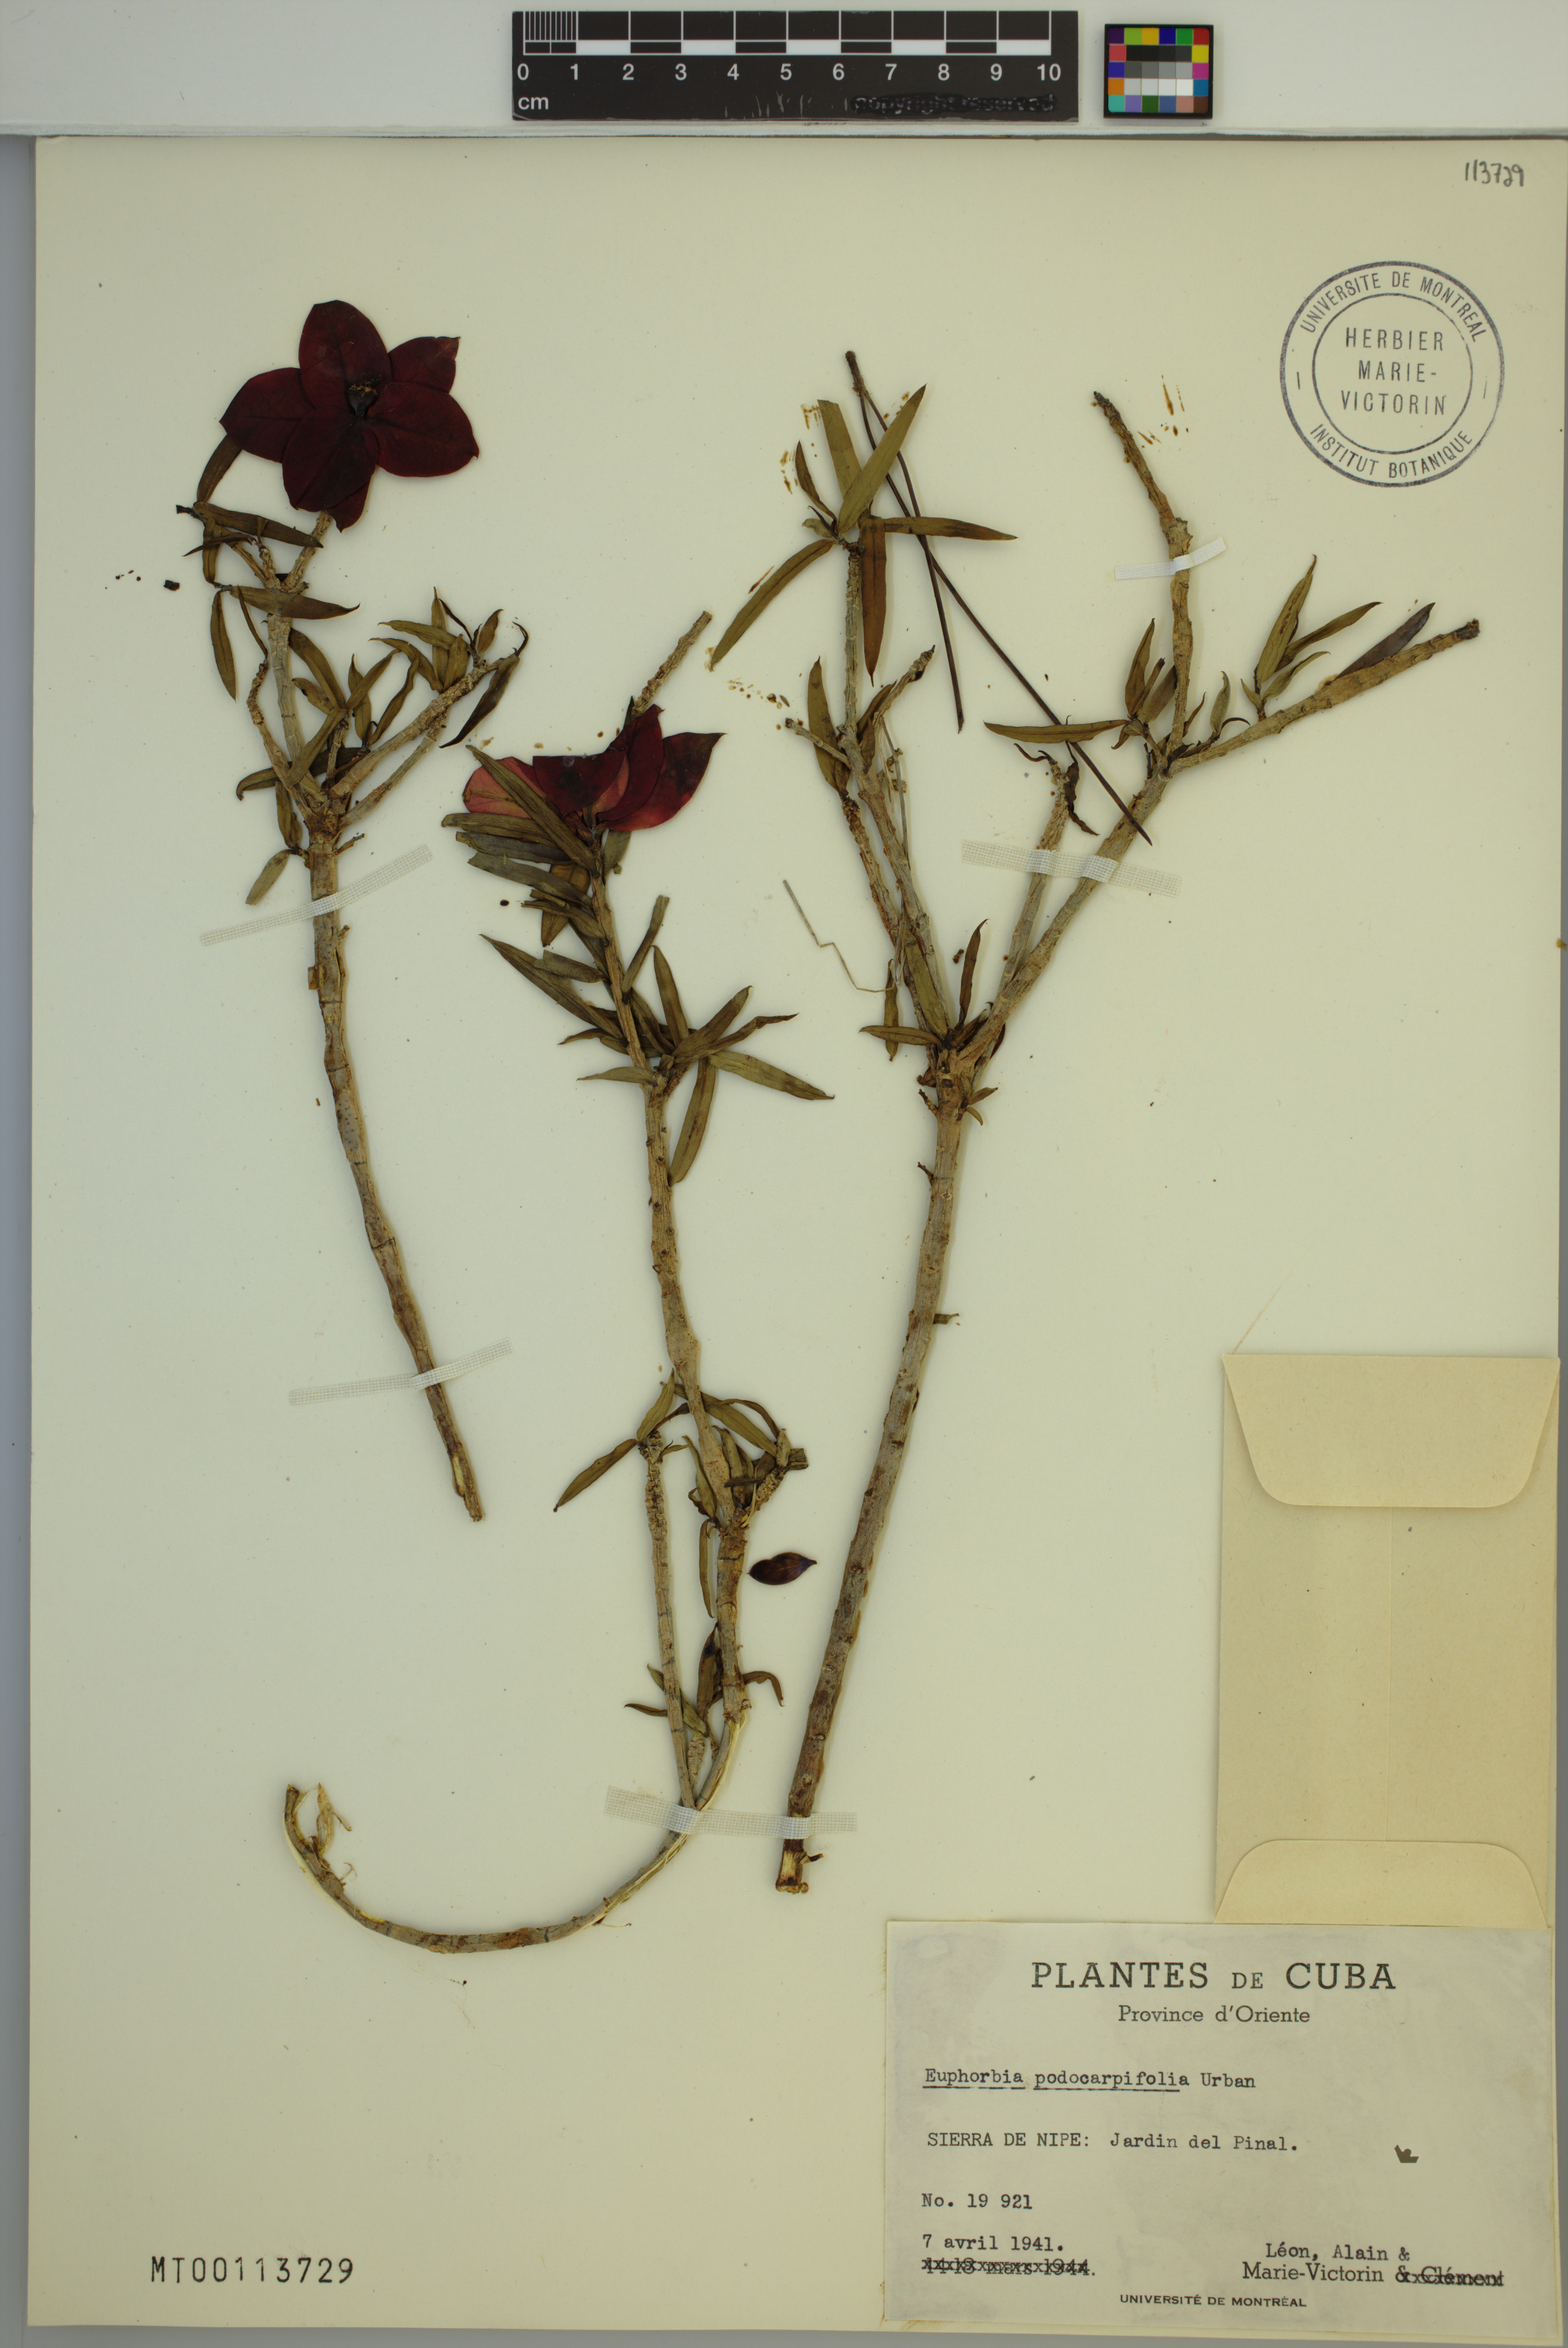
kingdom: Plantae
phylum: Tracheophyta
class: Magnoliopsida
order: Malpighiales
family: Euphorbiaceae
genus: Euphorbia
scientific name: Euphorbia podocarpifolia
